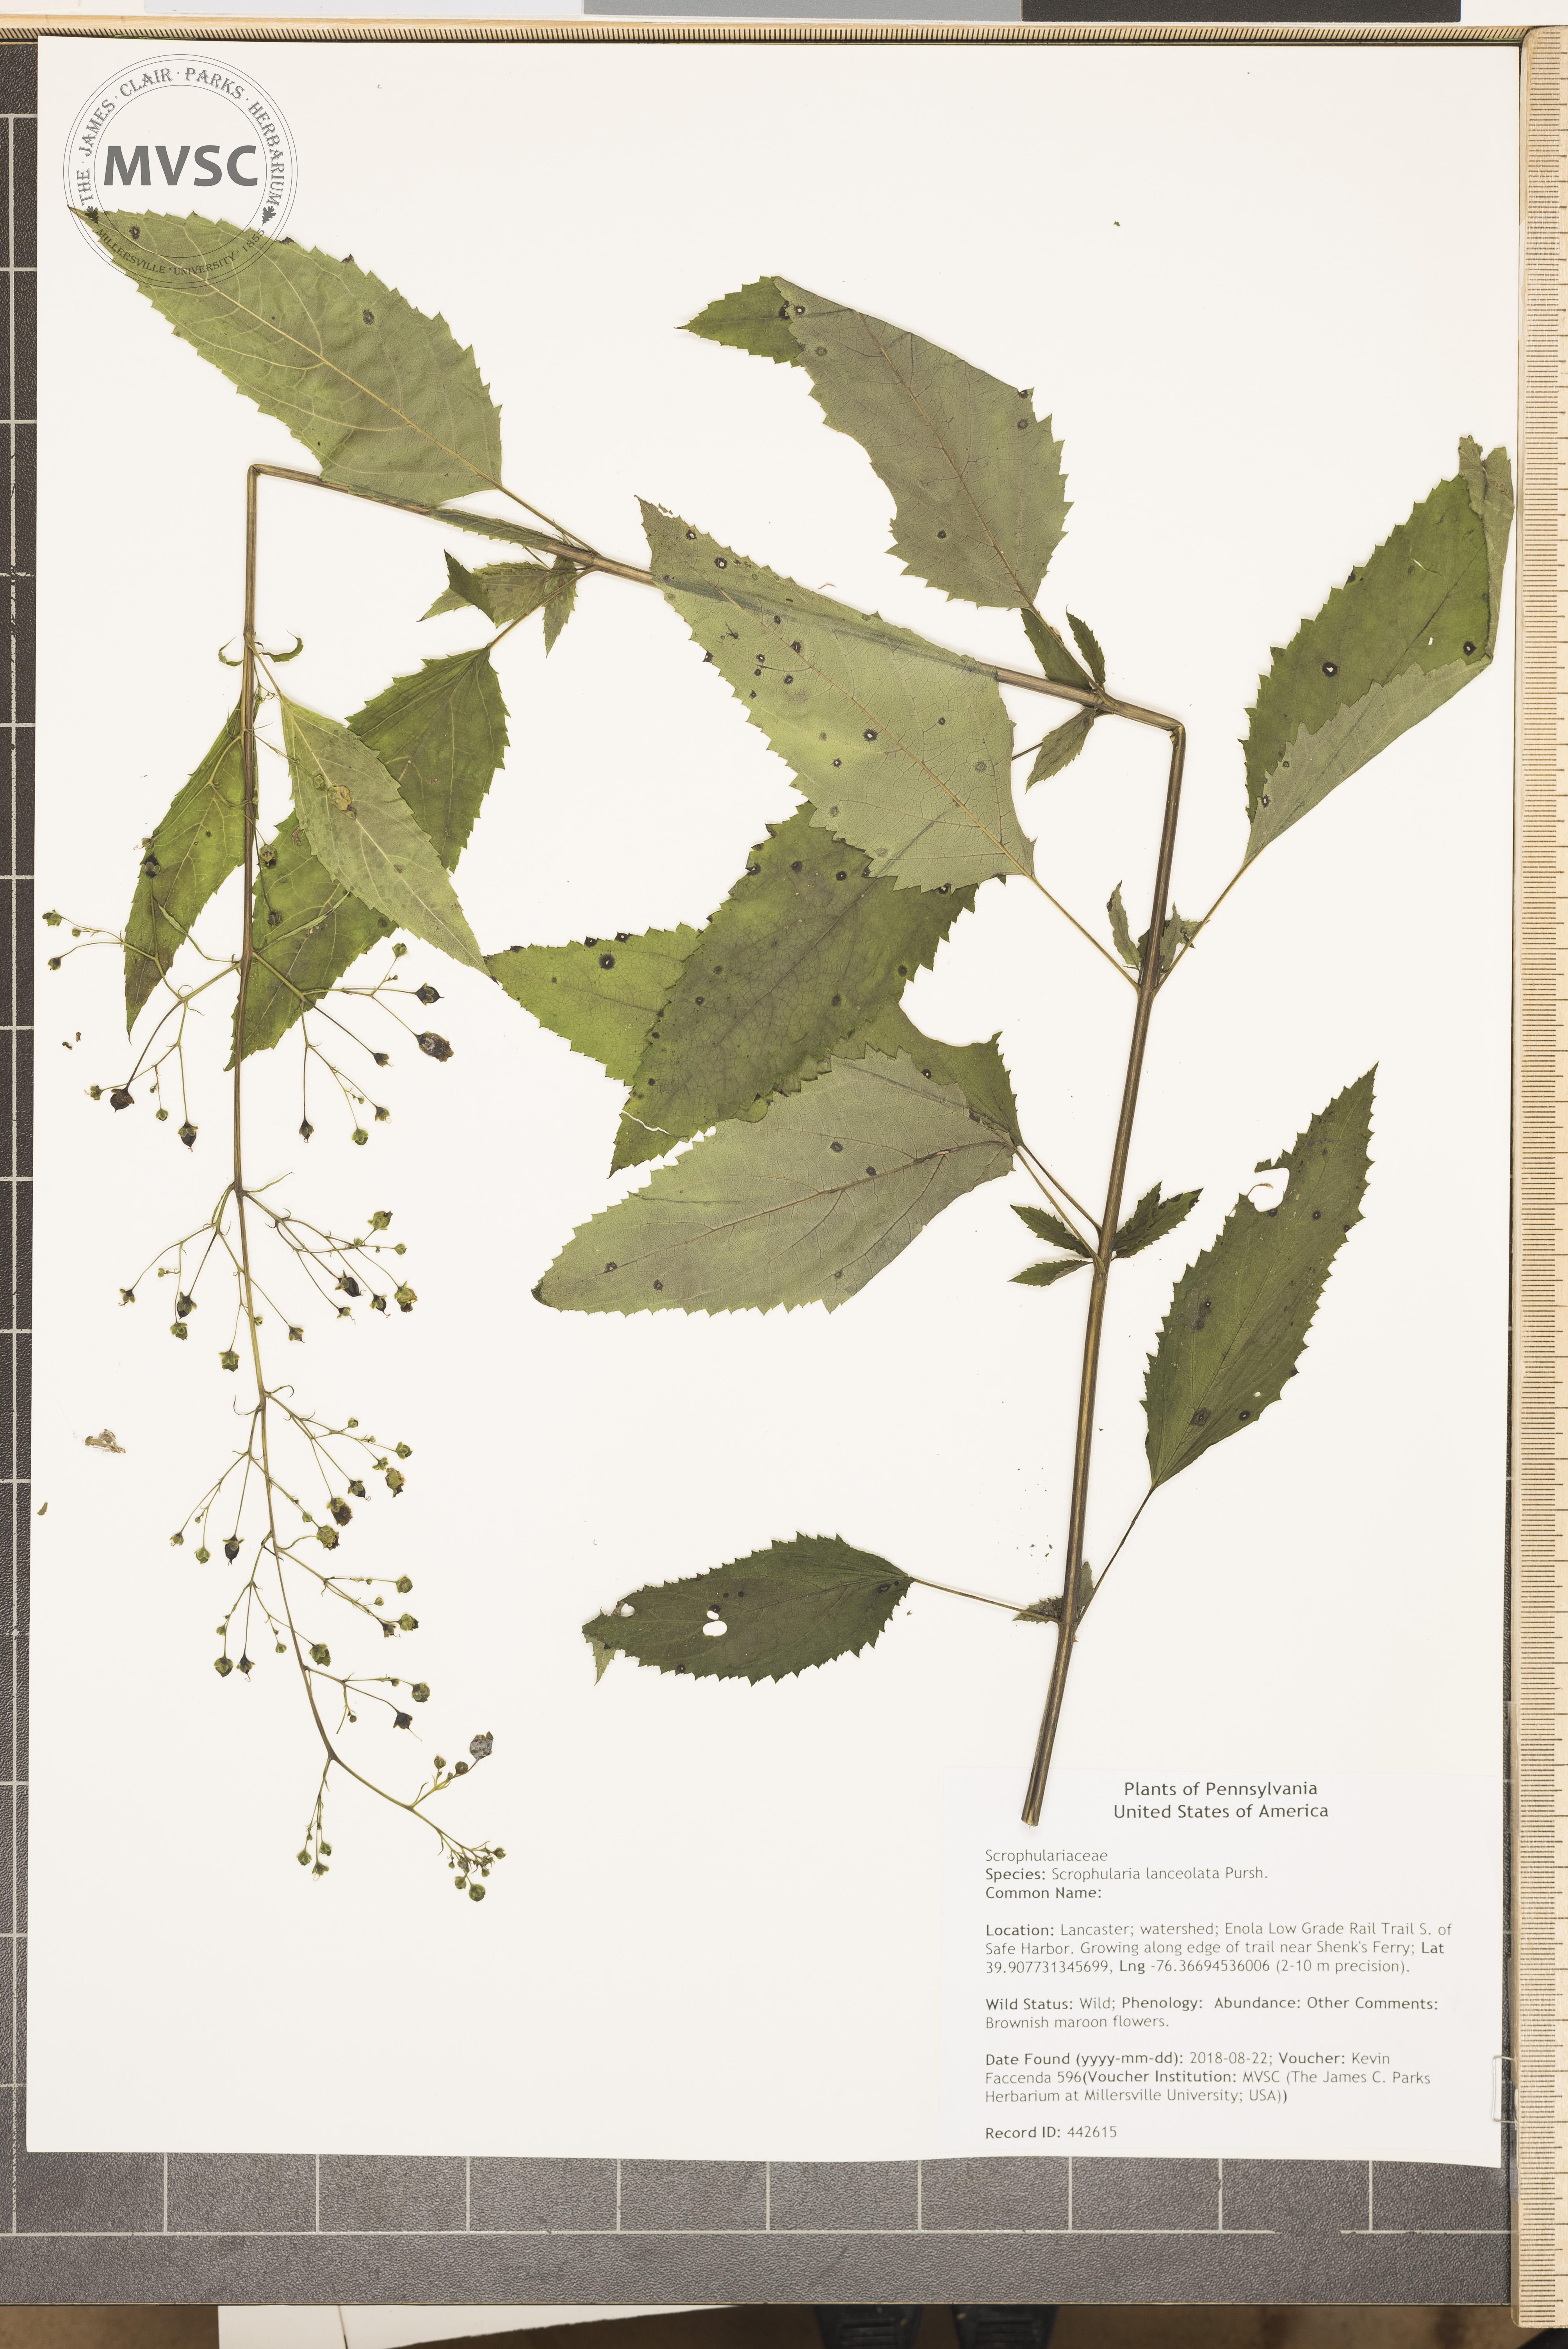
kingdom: Plantae
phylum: Tracheophyta
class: Magnoliopsida
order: Lamiales
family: Scrophulariaceae
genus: Scrophularia
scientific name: Scrophularia lanceolata
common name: American figwort
